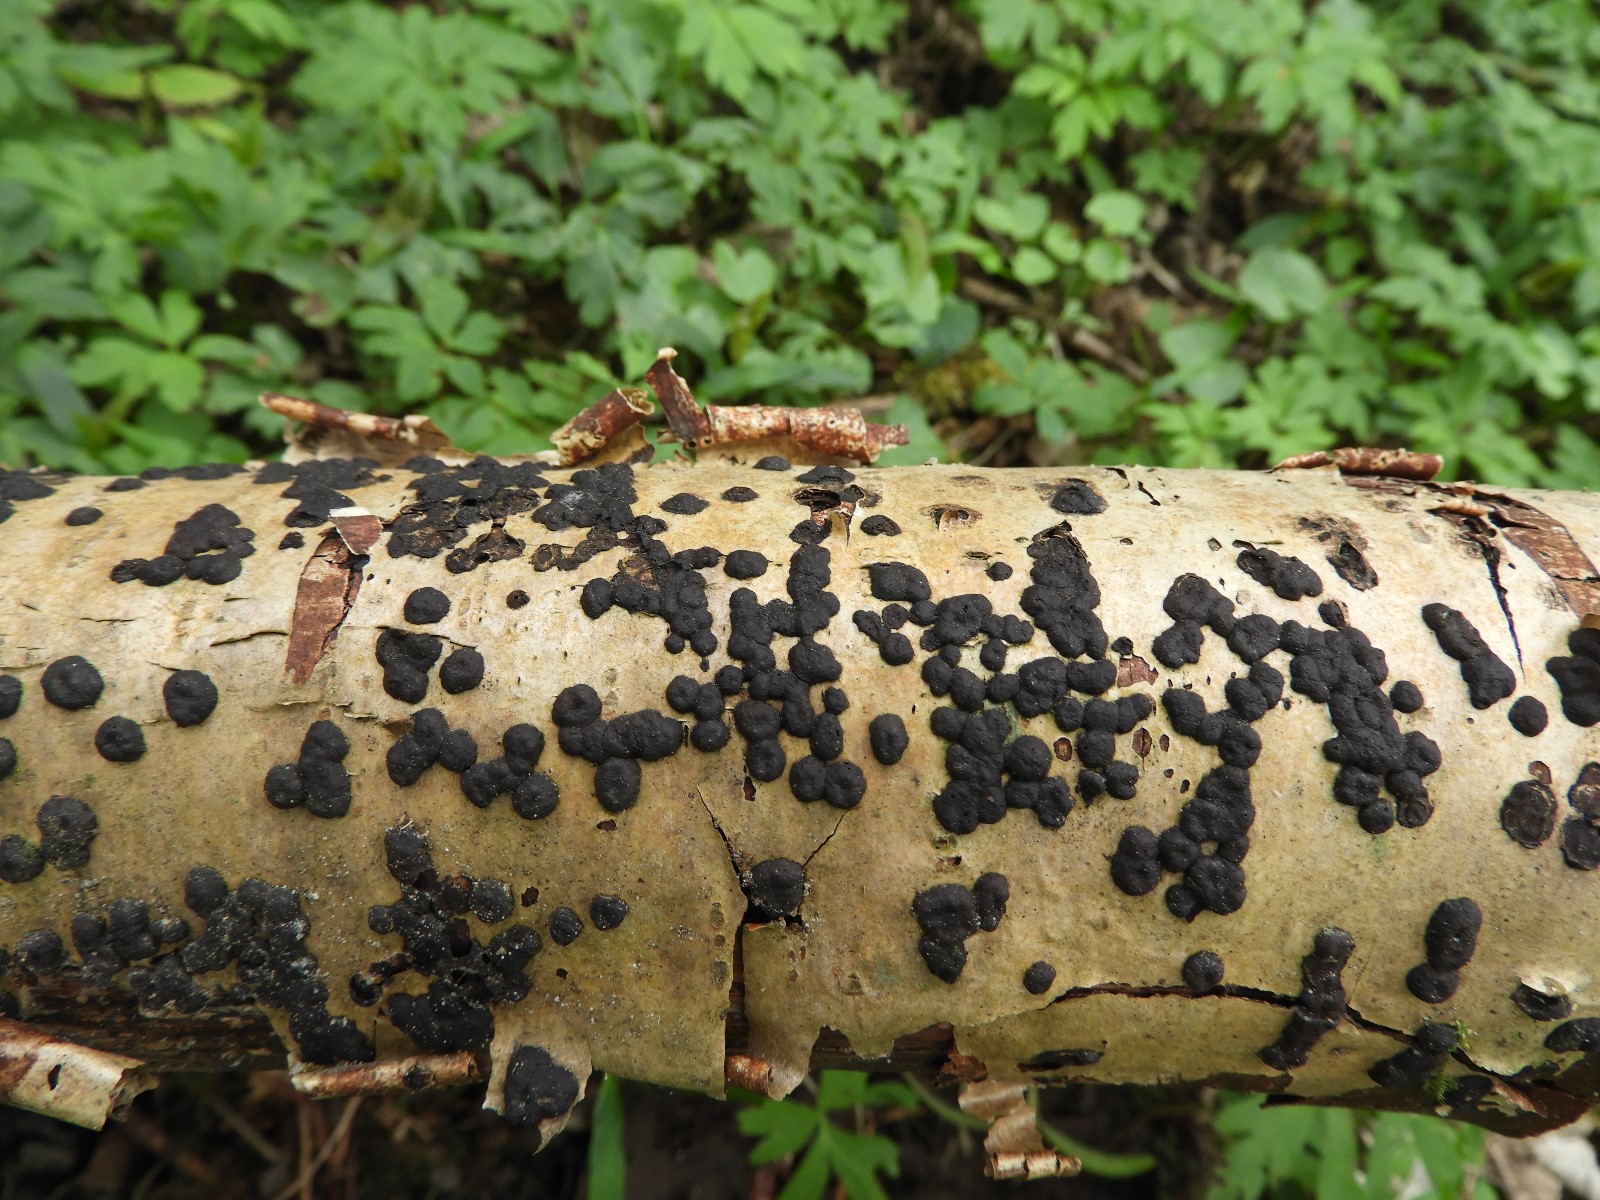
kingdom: Fungi
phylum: Ascomycota
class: Sordariomycetes
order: Xylariales
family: Hypoxylaceae
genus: Hypoxylon
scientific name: Hypoxylon fuscum
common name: kegleformet kulbær
